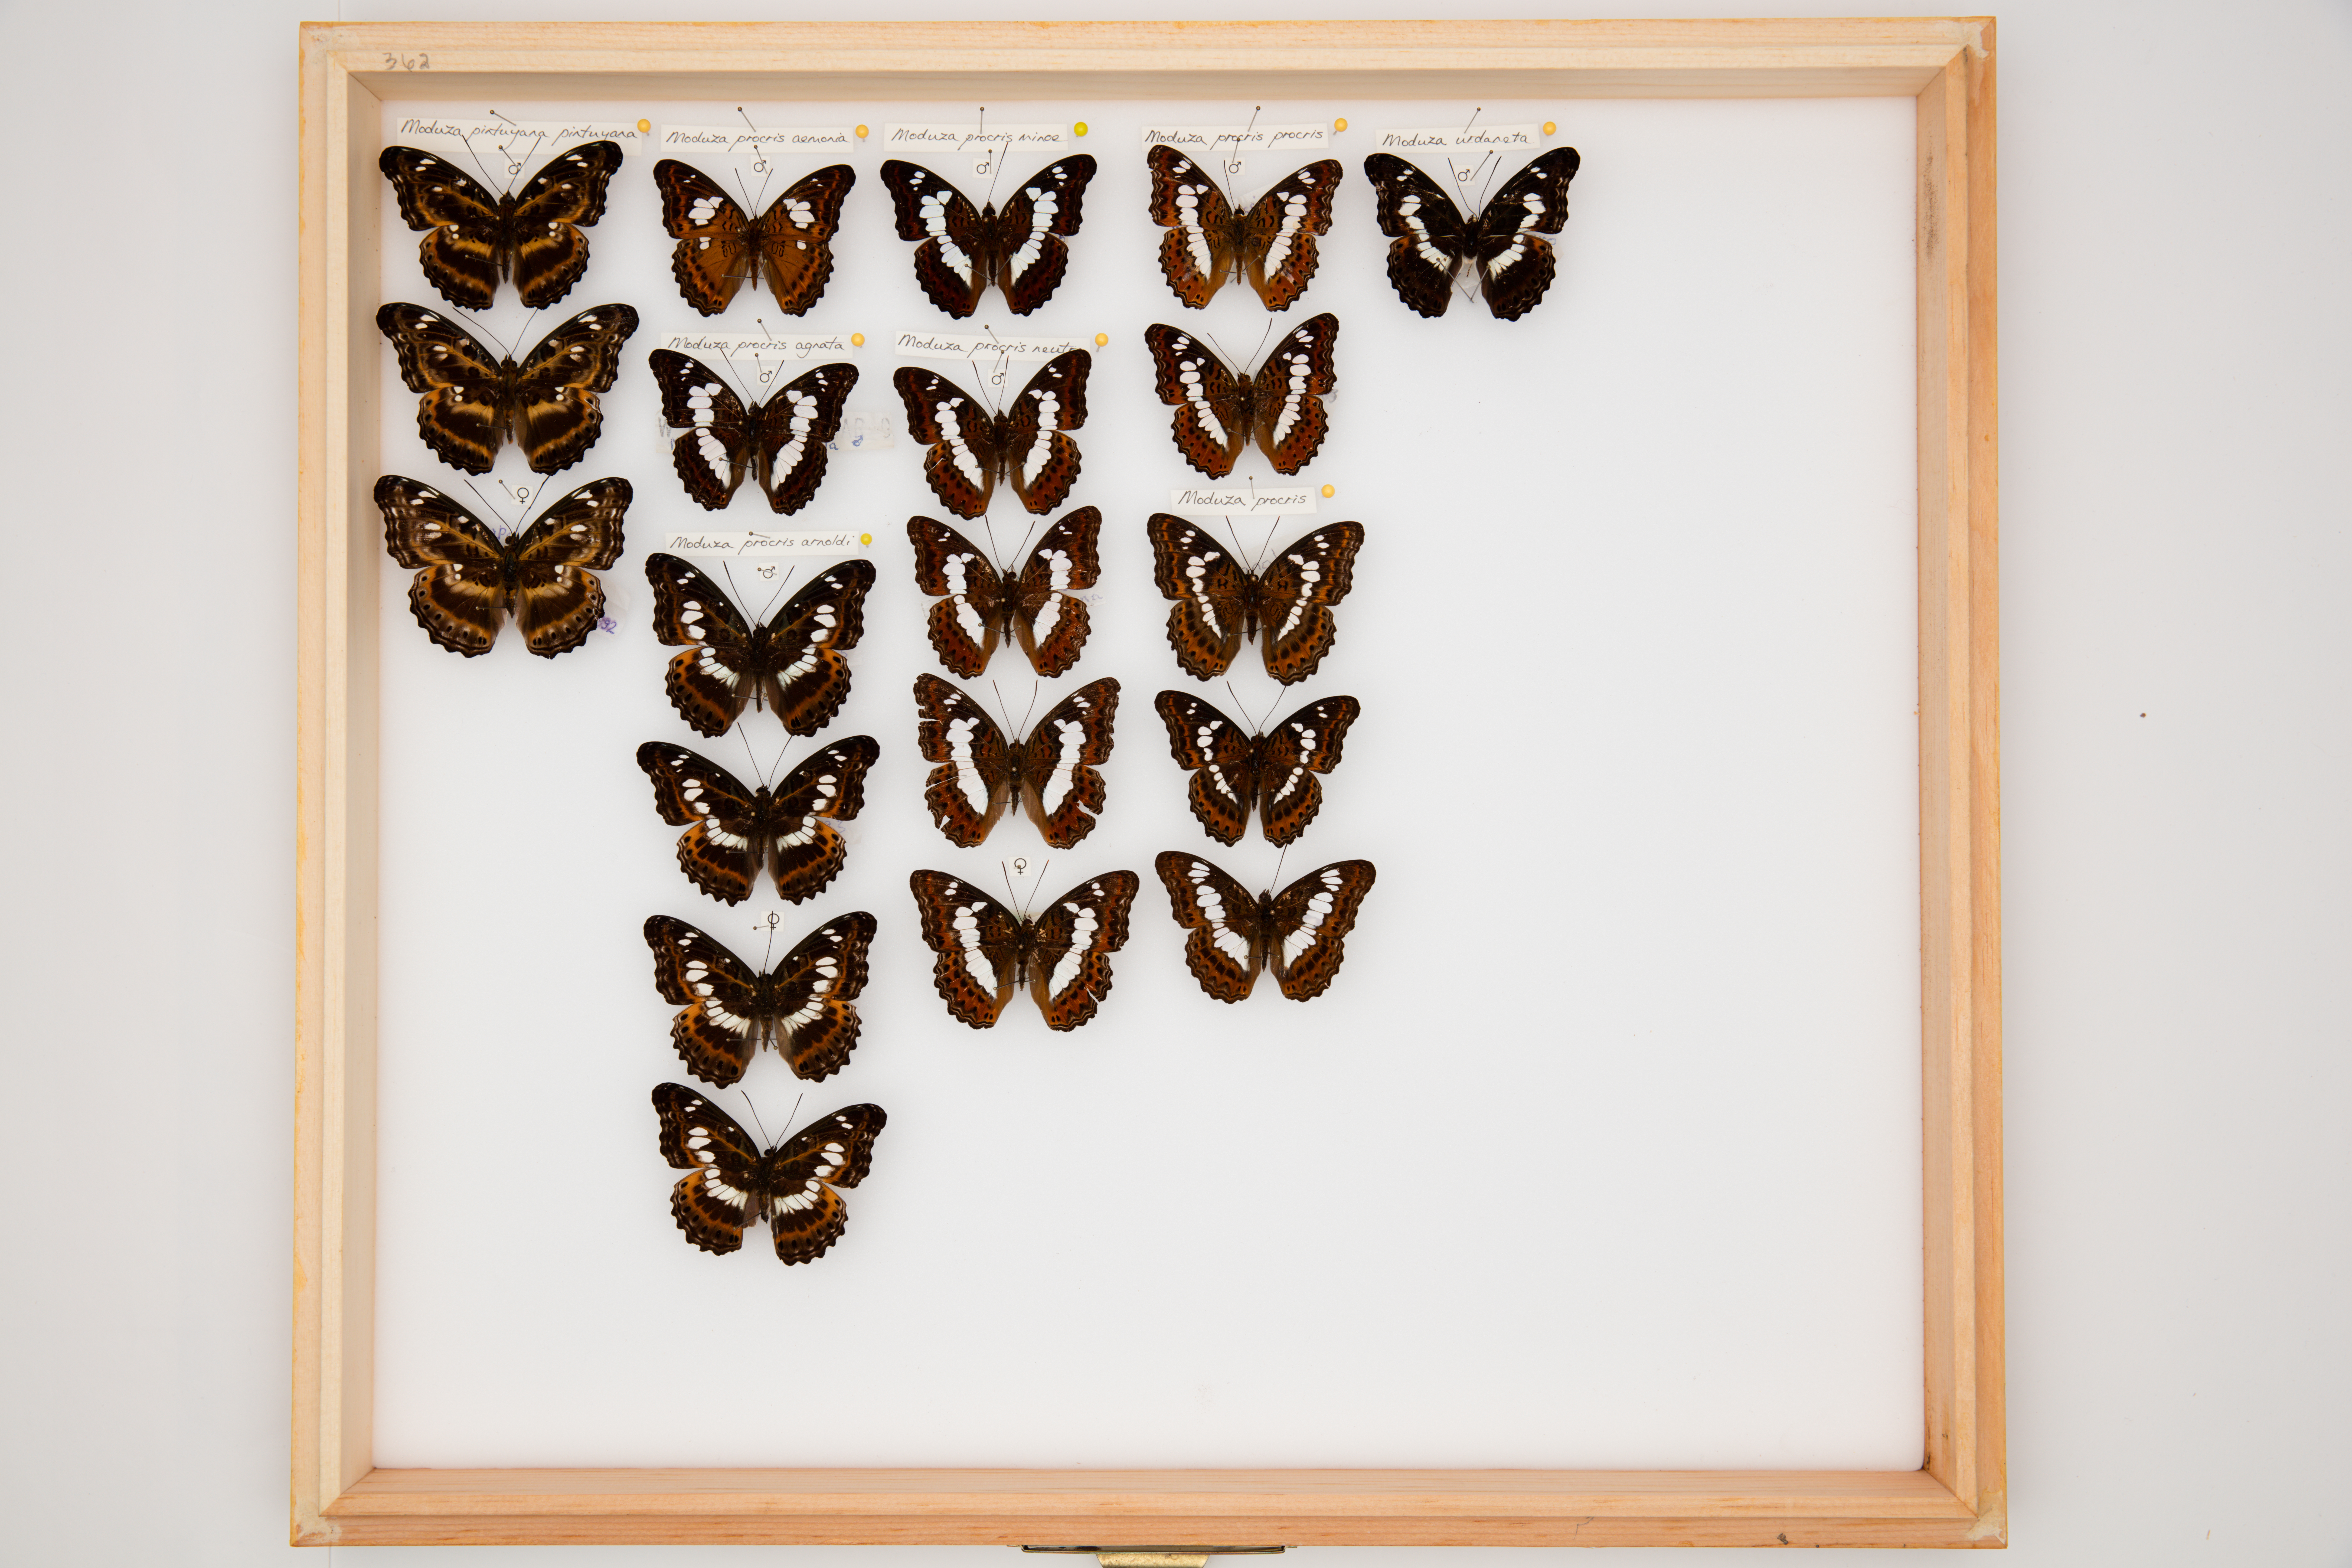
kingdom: Animalia
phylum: Arthropoda
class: Insecta
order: Lepidoptera
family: Nymphalidae
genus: Limenitis
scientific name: Limenitis Moduza pintuyana
